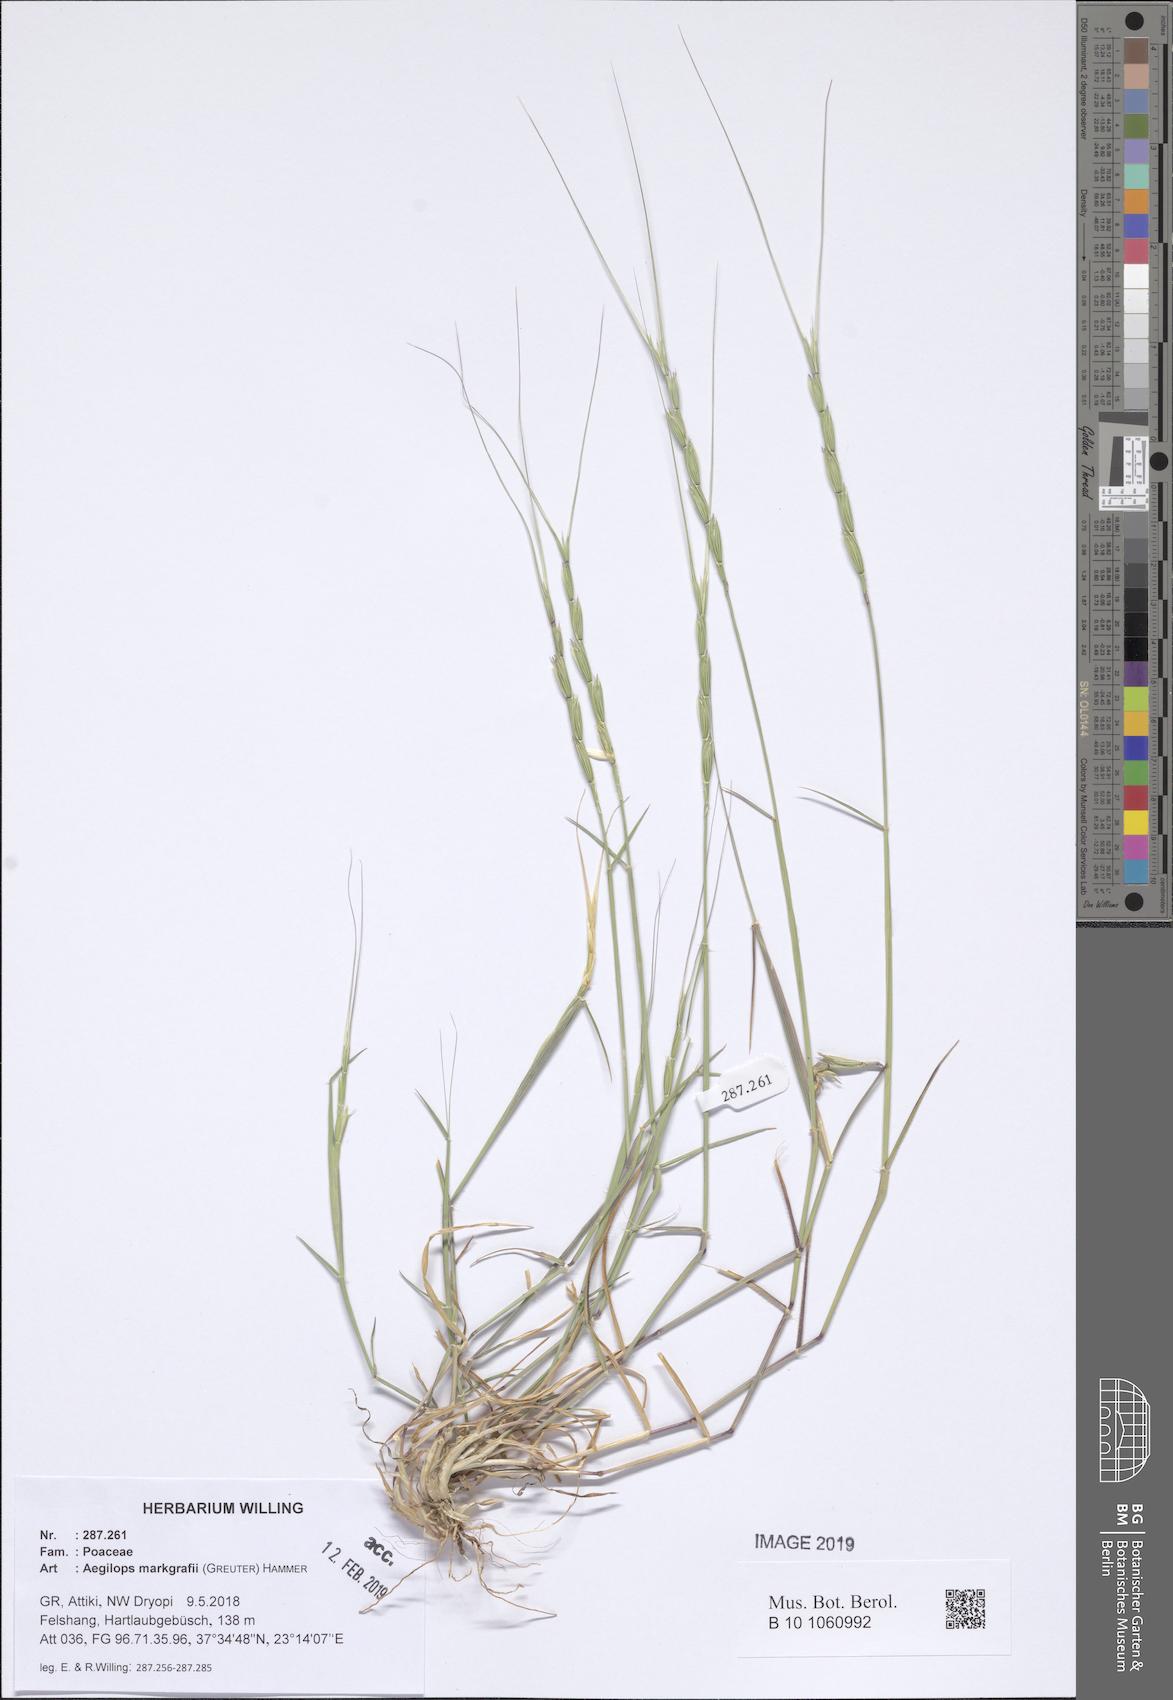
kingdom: Plantae
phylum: Tracheophyta
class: Liliopsida
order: Poales
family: Poaceae
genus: Aegilops
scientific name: Aegilops caudata
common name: Cretan hard-grass
